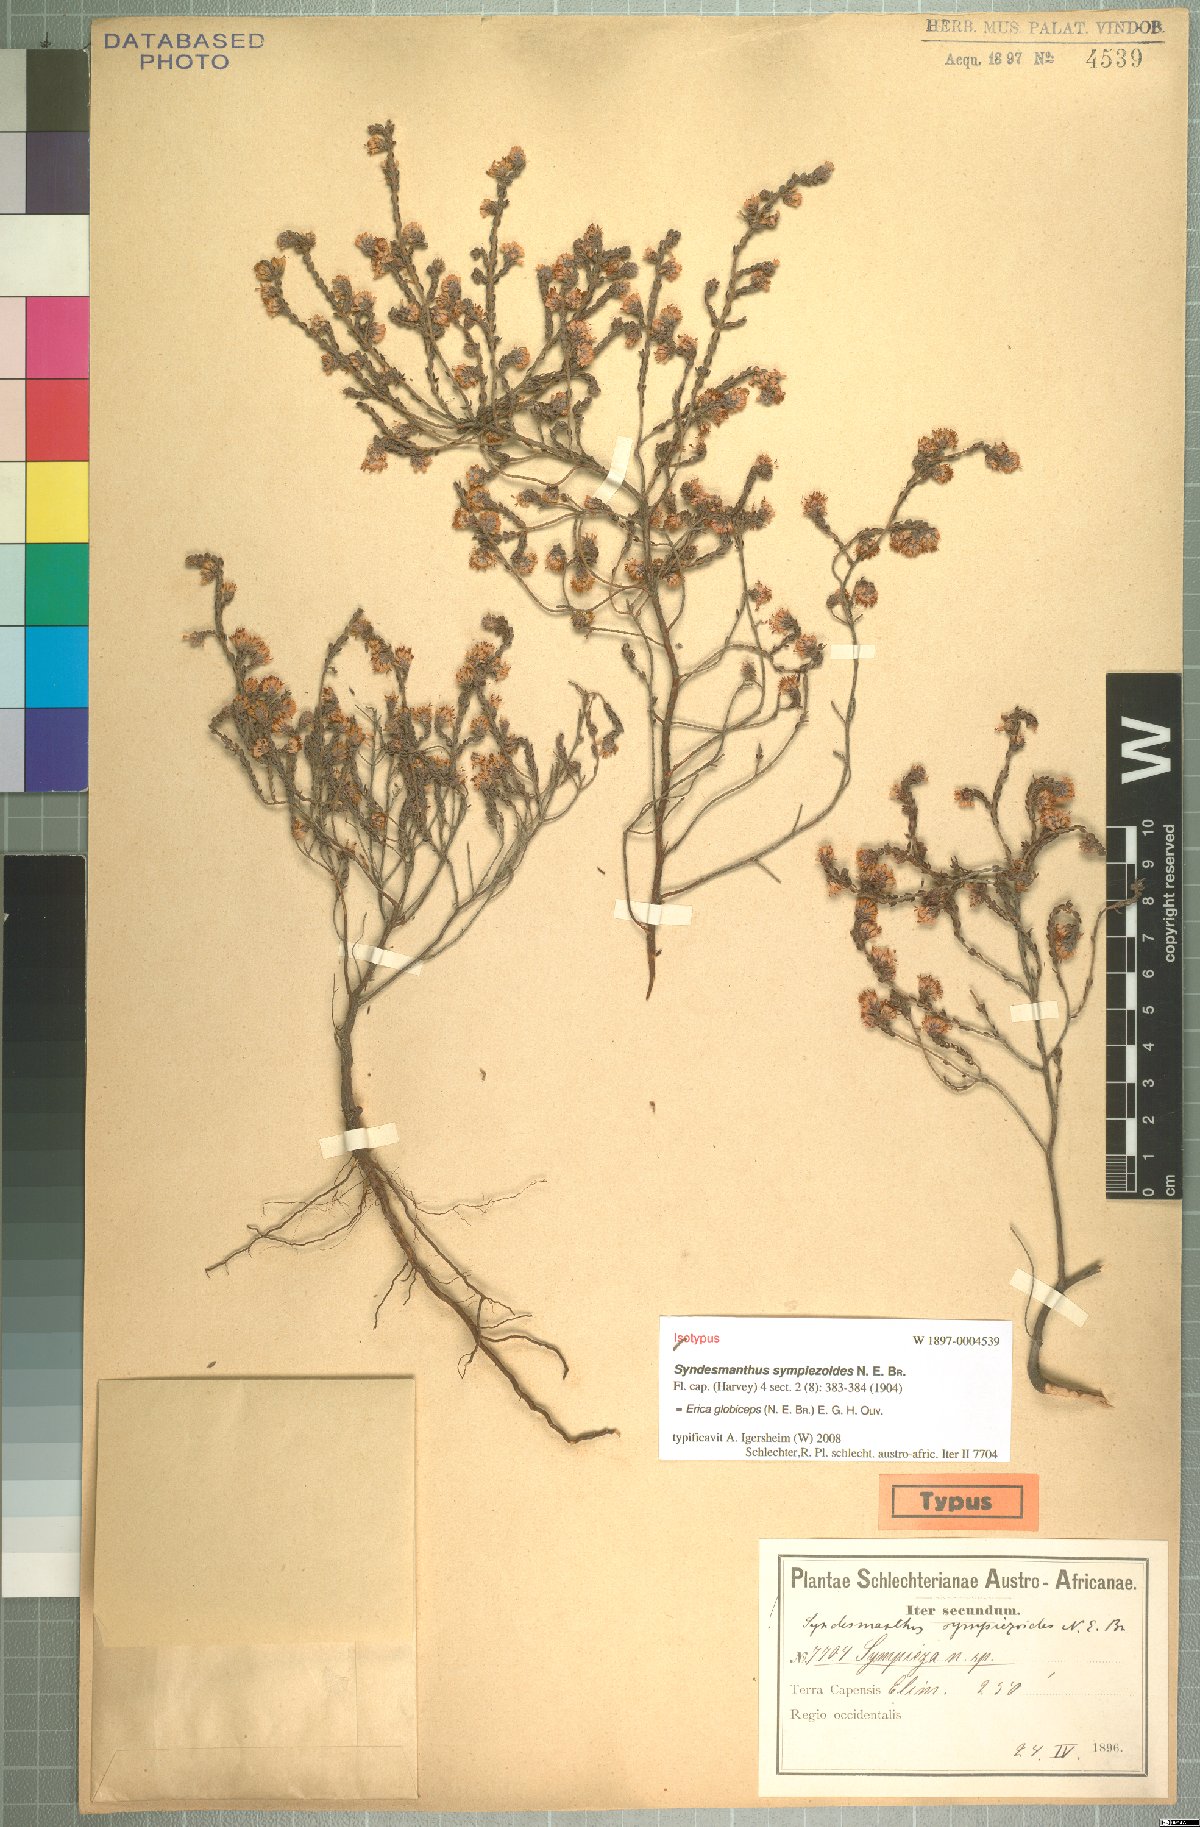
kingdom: Plantae
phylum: Tracheophyta
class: Magnoliopsida
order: Ericales
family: Ericaceae
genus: Erica
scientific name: Erica globiceps
